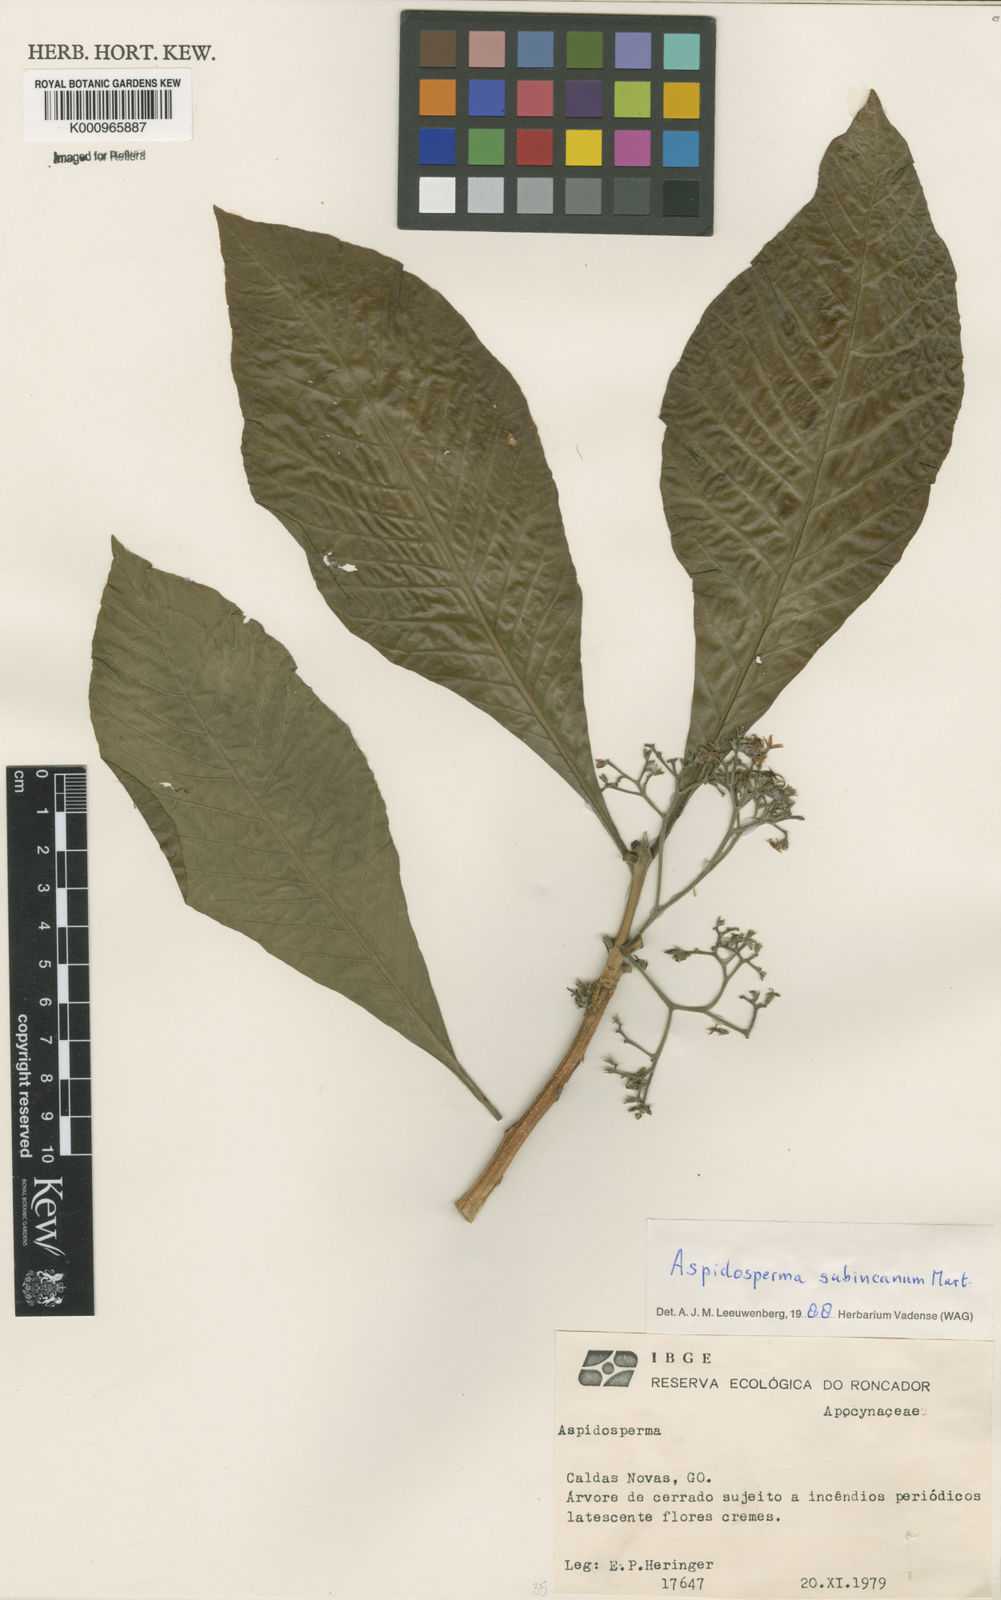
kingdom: Plantae
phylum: Tracheophyta
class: Magnoliopsida
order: Gentianales
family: Apocynaceae
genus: Aspidosperma
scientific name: Aspidosperma subincanum
